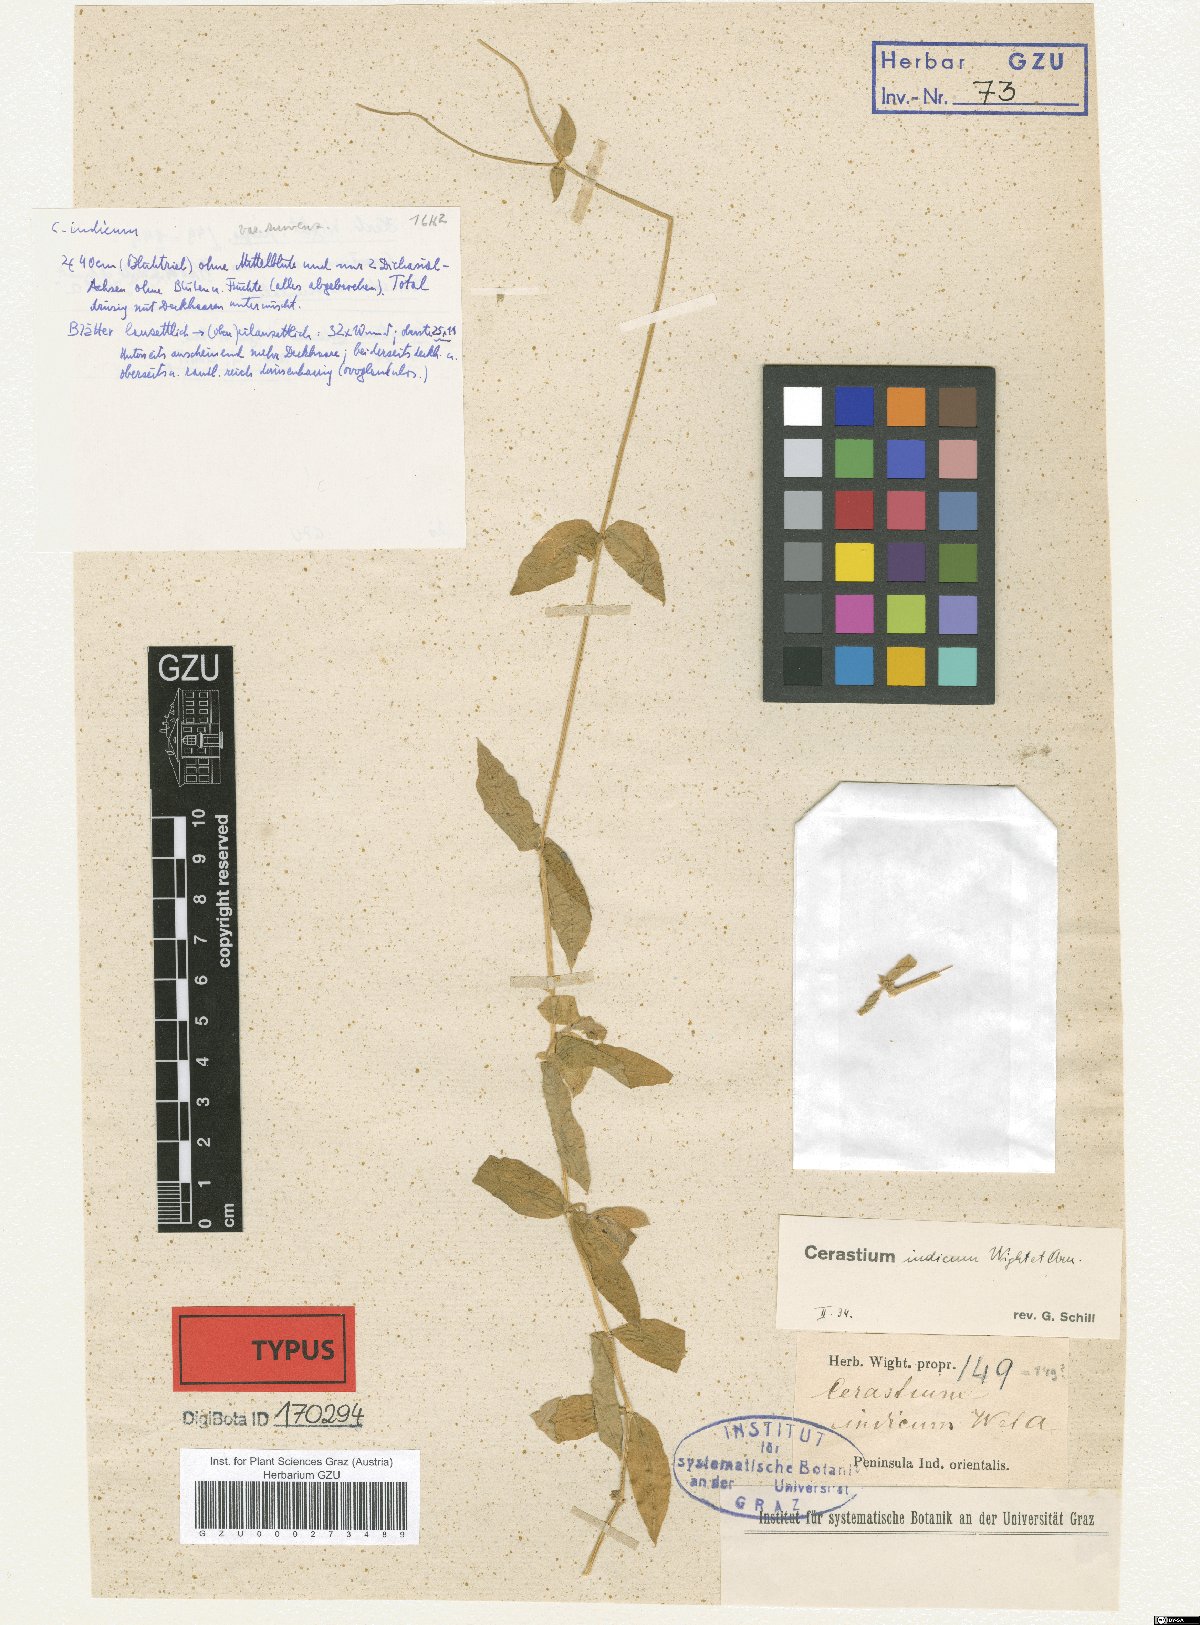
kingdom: Plantae
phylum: Tracheophyta
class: Magnoliopsida
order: Caryophyllales
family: Caryophyllaceae
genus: Cerastium
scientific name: Cerastium lanceolatum
